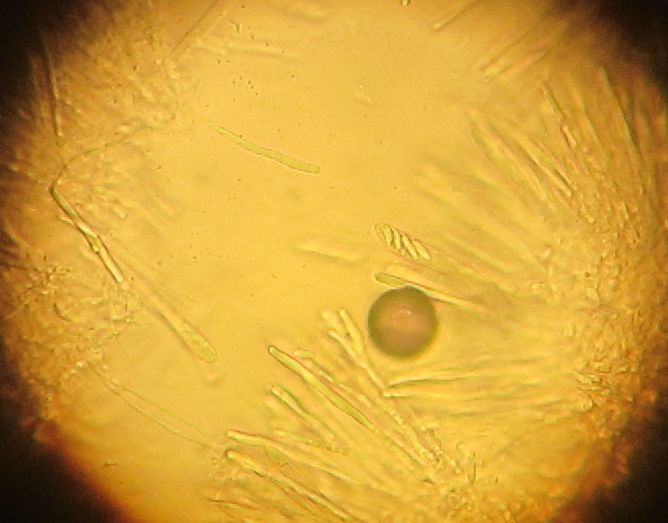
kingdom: Fungi
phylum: Ascomycota
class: Leotiomycetes
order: Helotiales
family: Mollisiaceae
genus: Mollisia
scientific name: Mollisia
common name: gråskive
